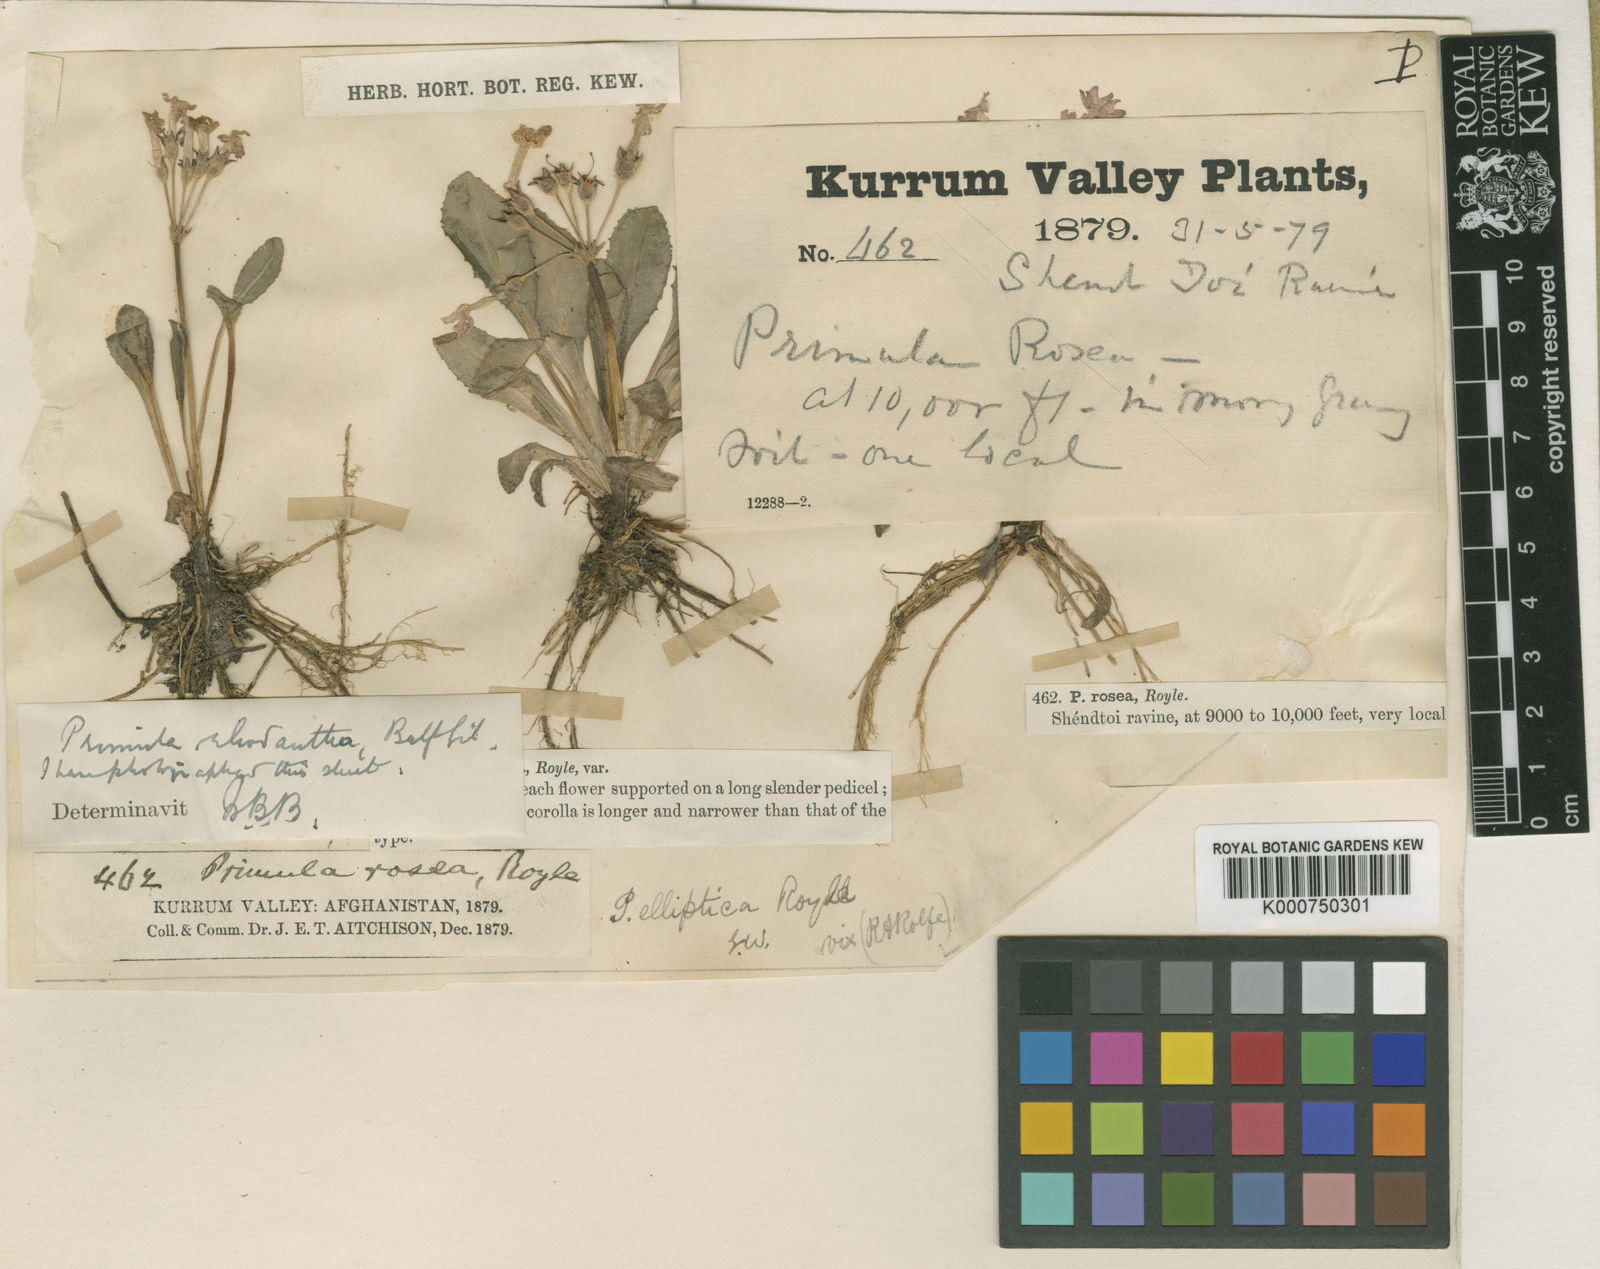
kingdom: Plantae
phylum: Tracheophyta
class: Magnoliopsida
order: Ericales
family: Primulaceae
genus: Primula
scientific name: Primula warshenewskiana
